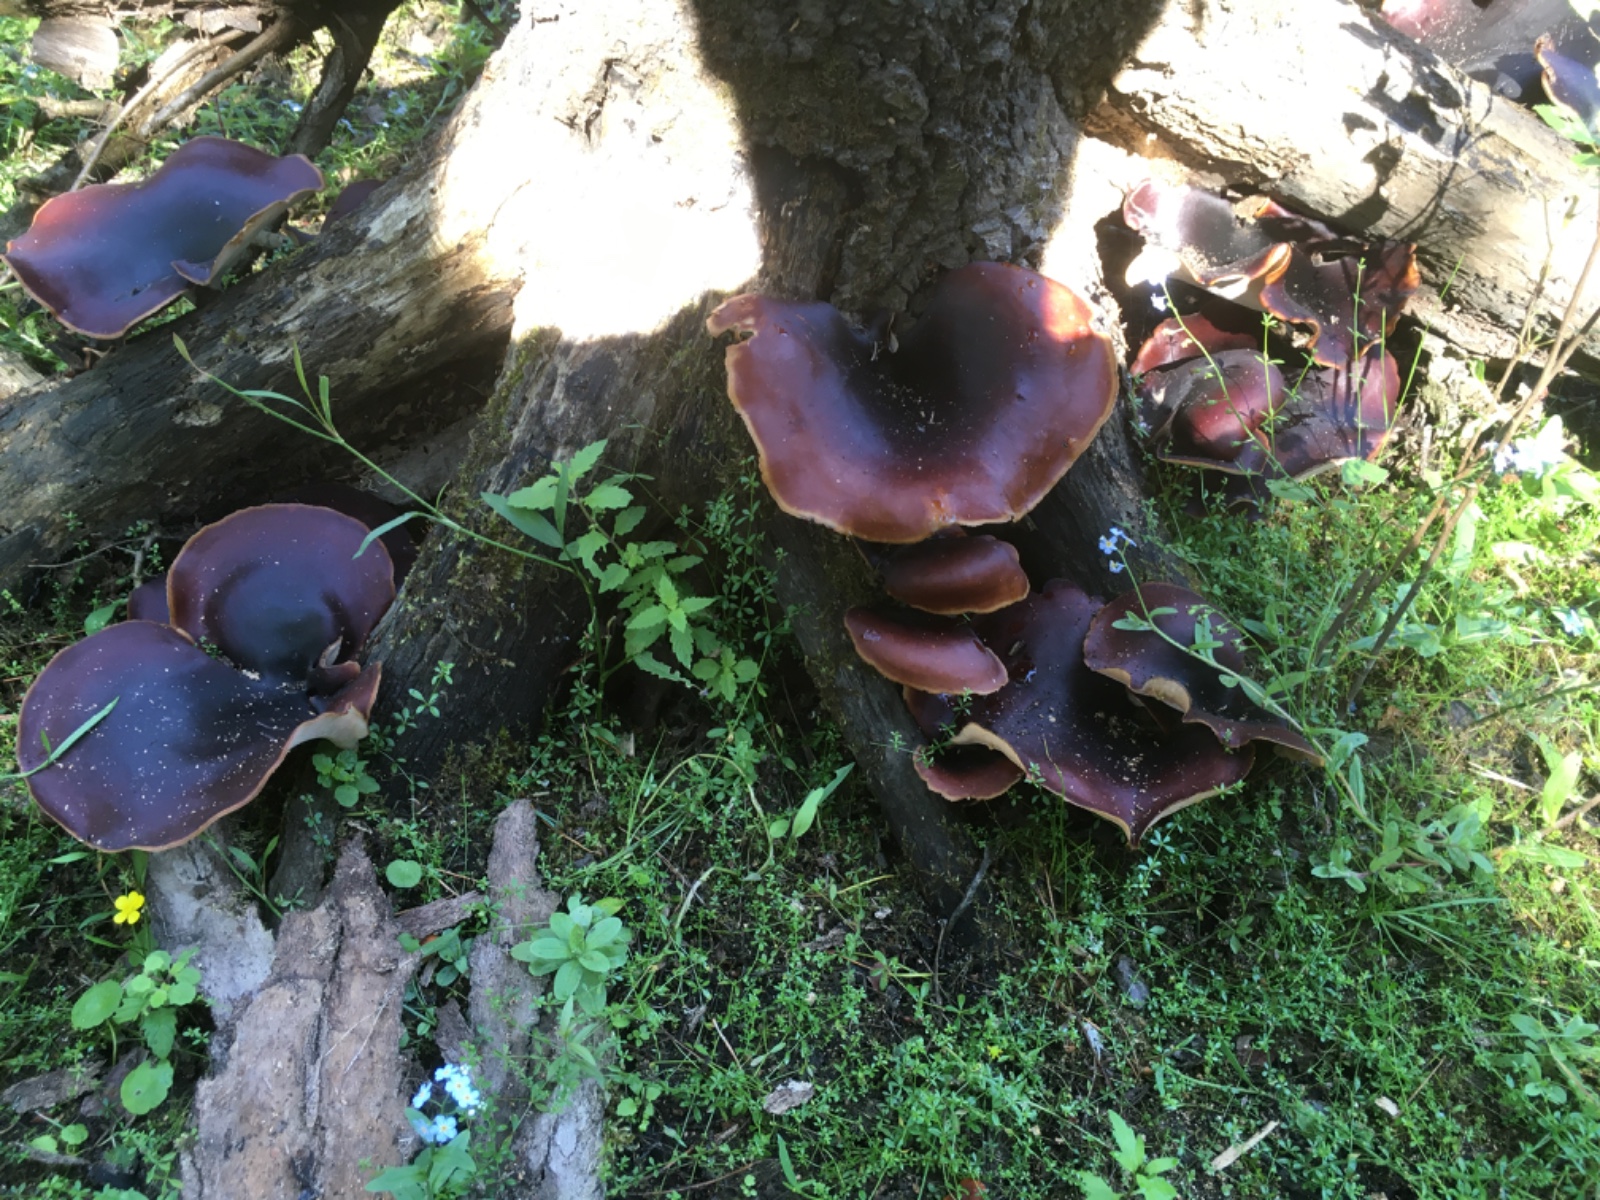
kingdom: Fungi
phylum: Basidiomycota
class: Agaricomycetes
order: Polyporales
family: Polyporaceae
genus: Picipes
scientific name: Picipes badius
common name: kastaniebrun stilkporesvamp
